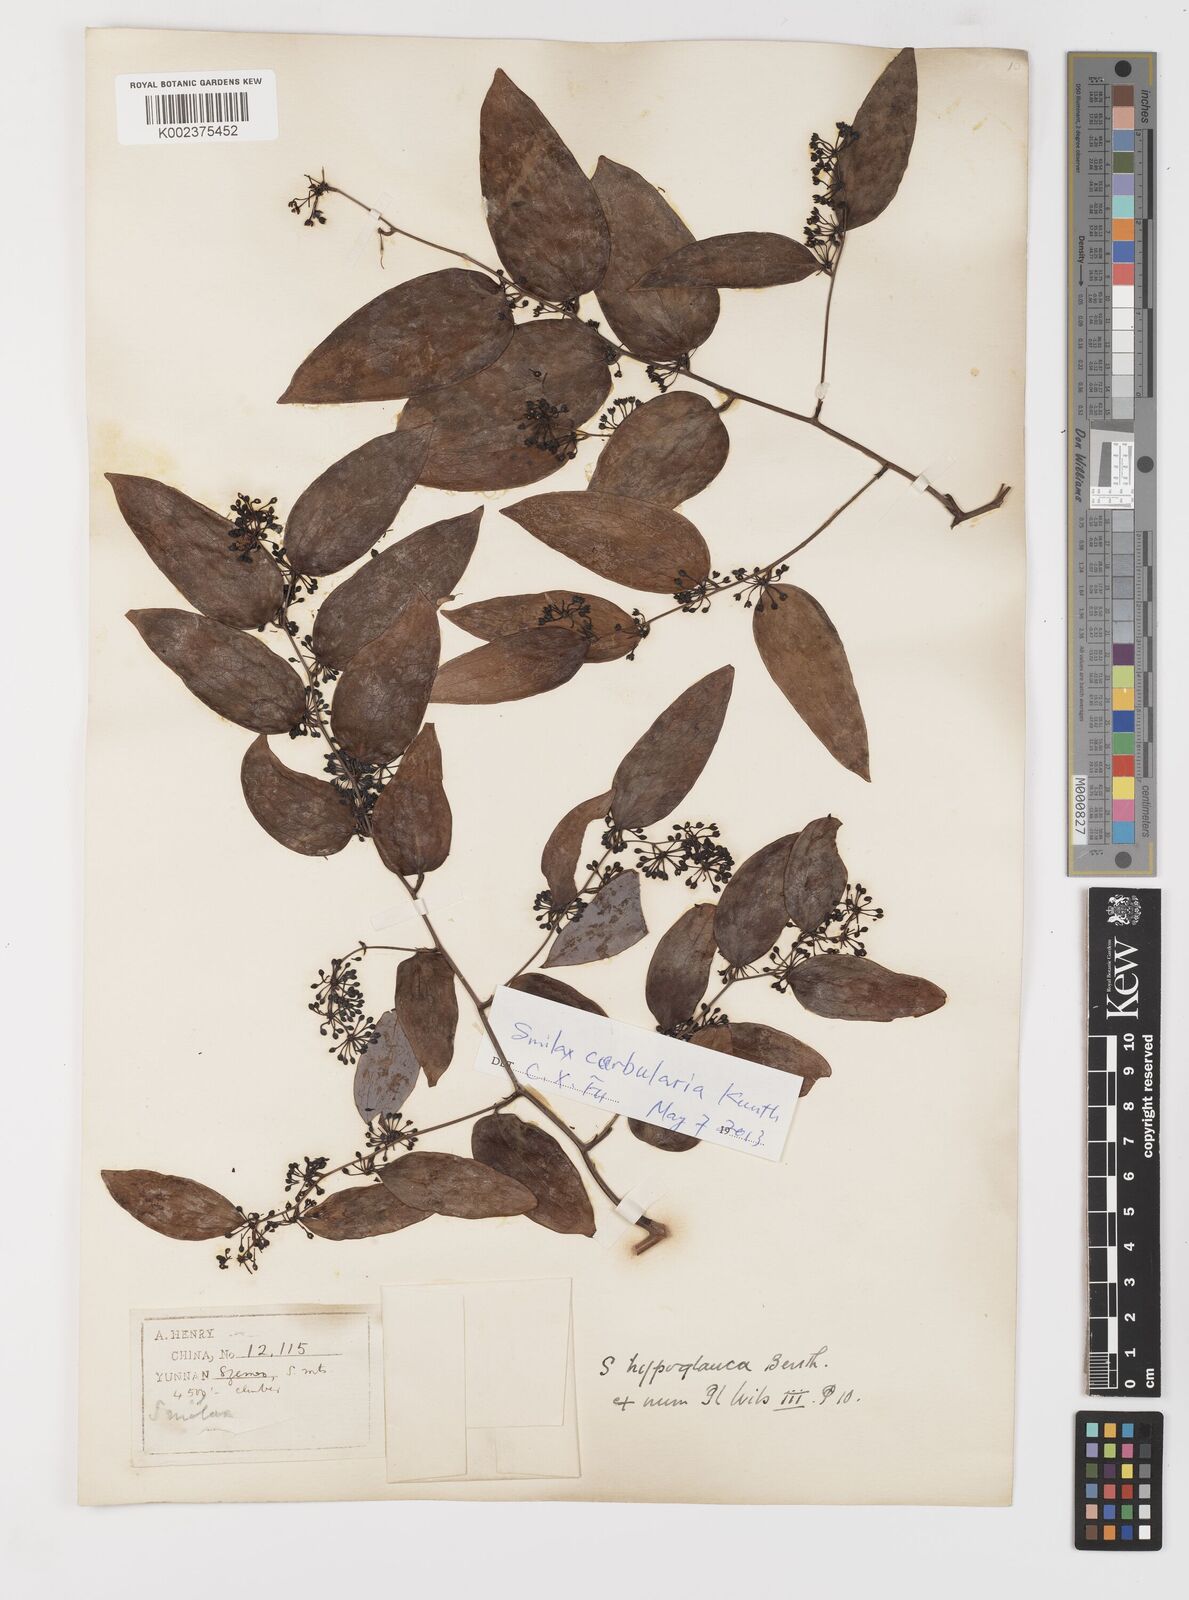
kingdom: Plantae
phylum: Tracheophyta
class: Liliopsida
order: Liliales
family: Smilacaceae
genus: Smilax
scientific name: Smilax hypoglauca
